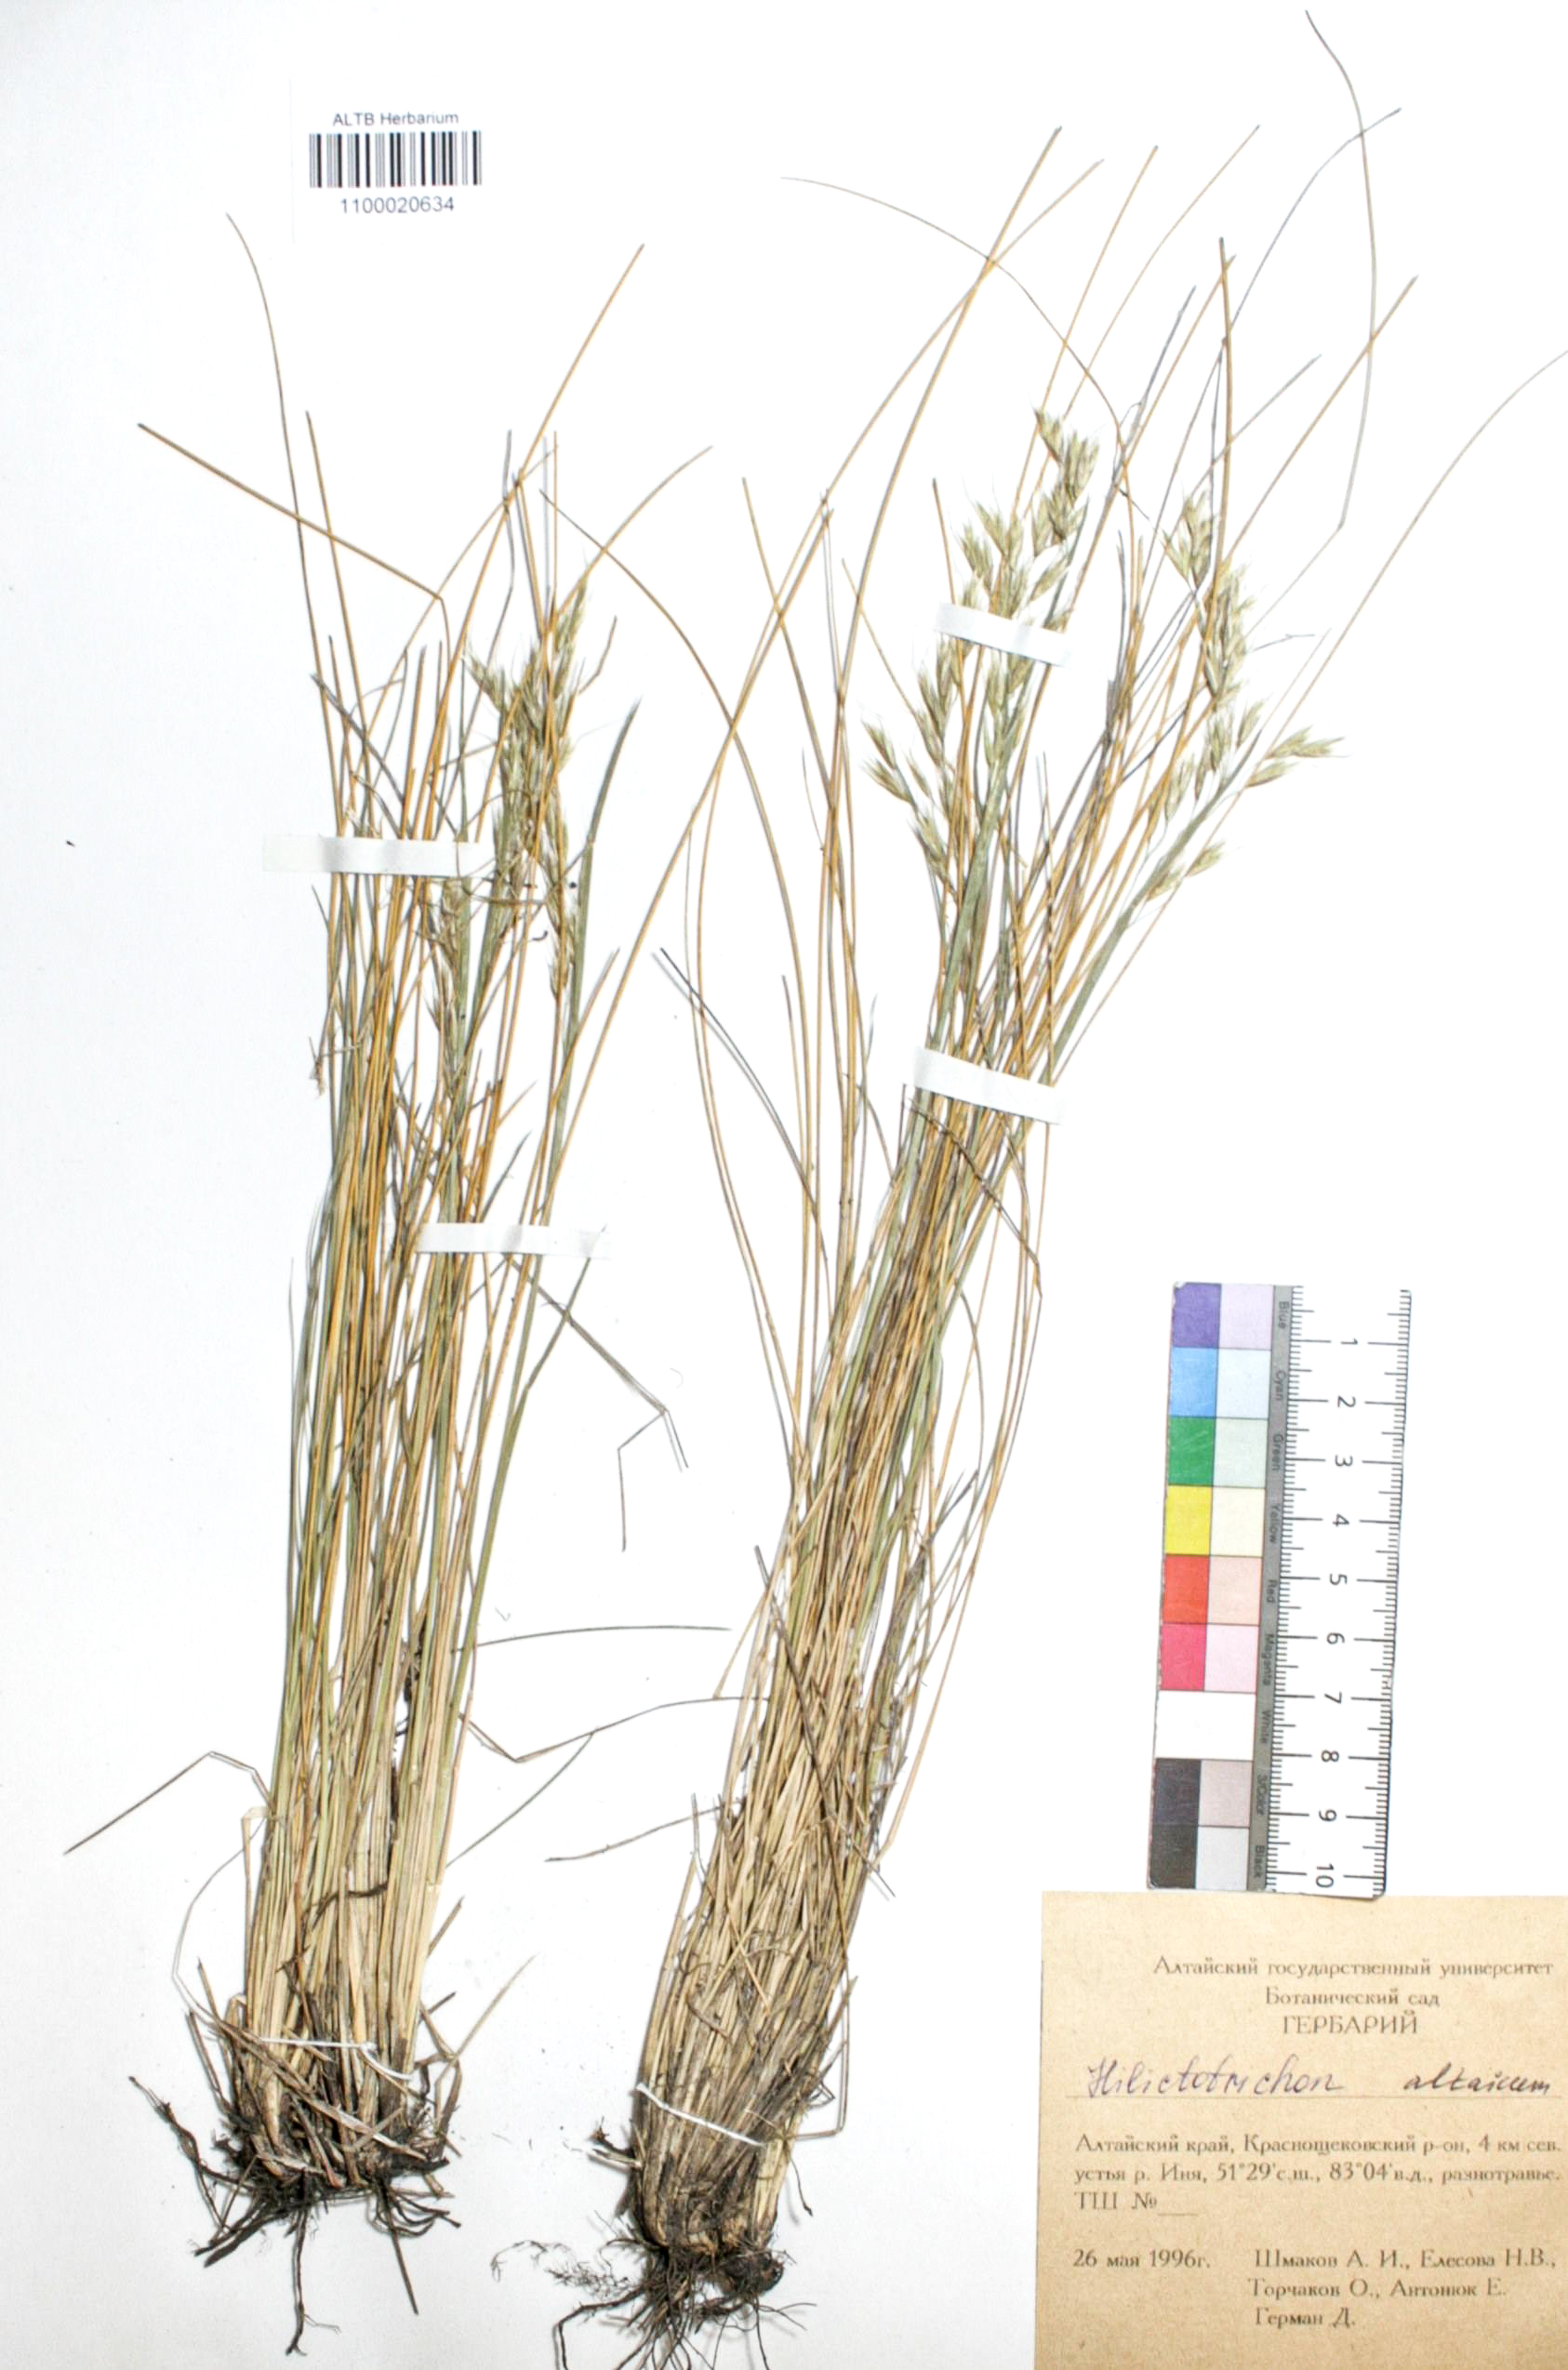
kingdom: Plantae
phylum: Tracheophyta
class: Liliopsida
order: Poales
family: Poaceae
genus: Helictotrichon
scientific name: Helictotrichon desertorum
